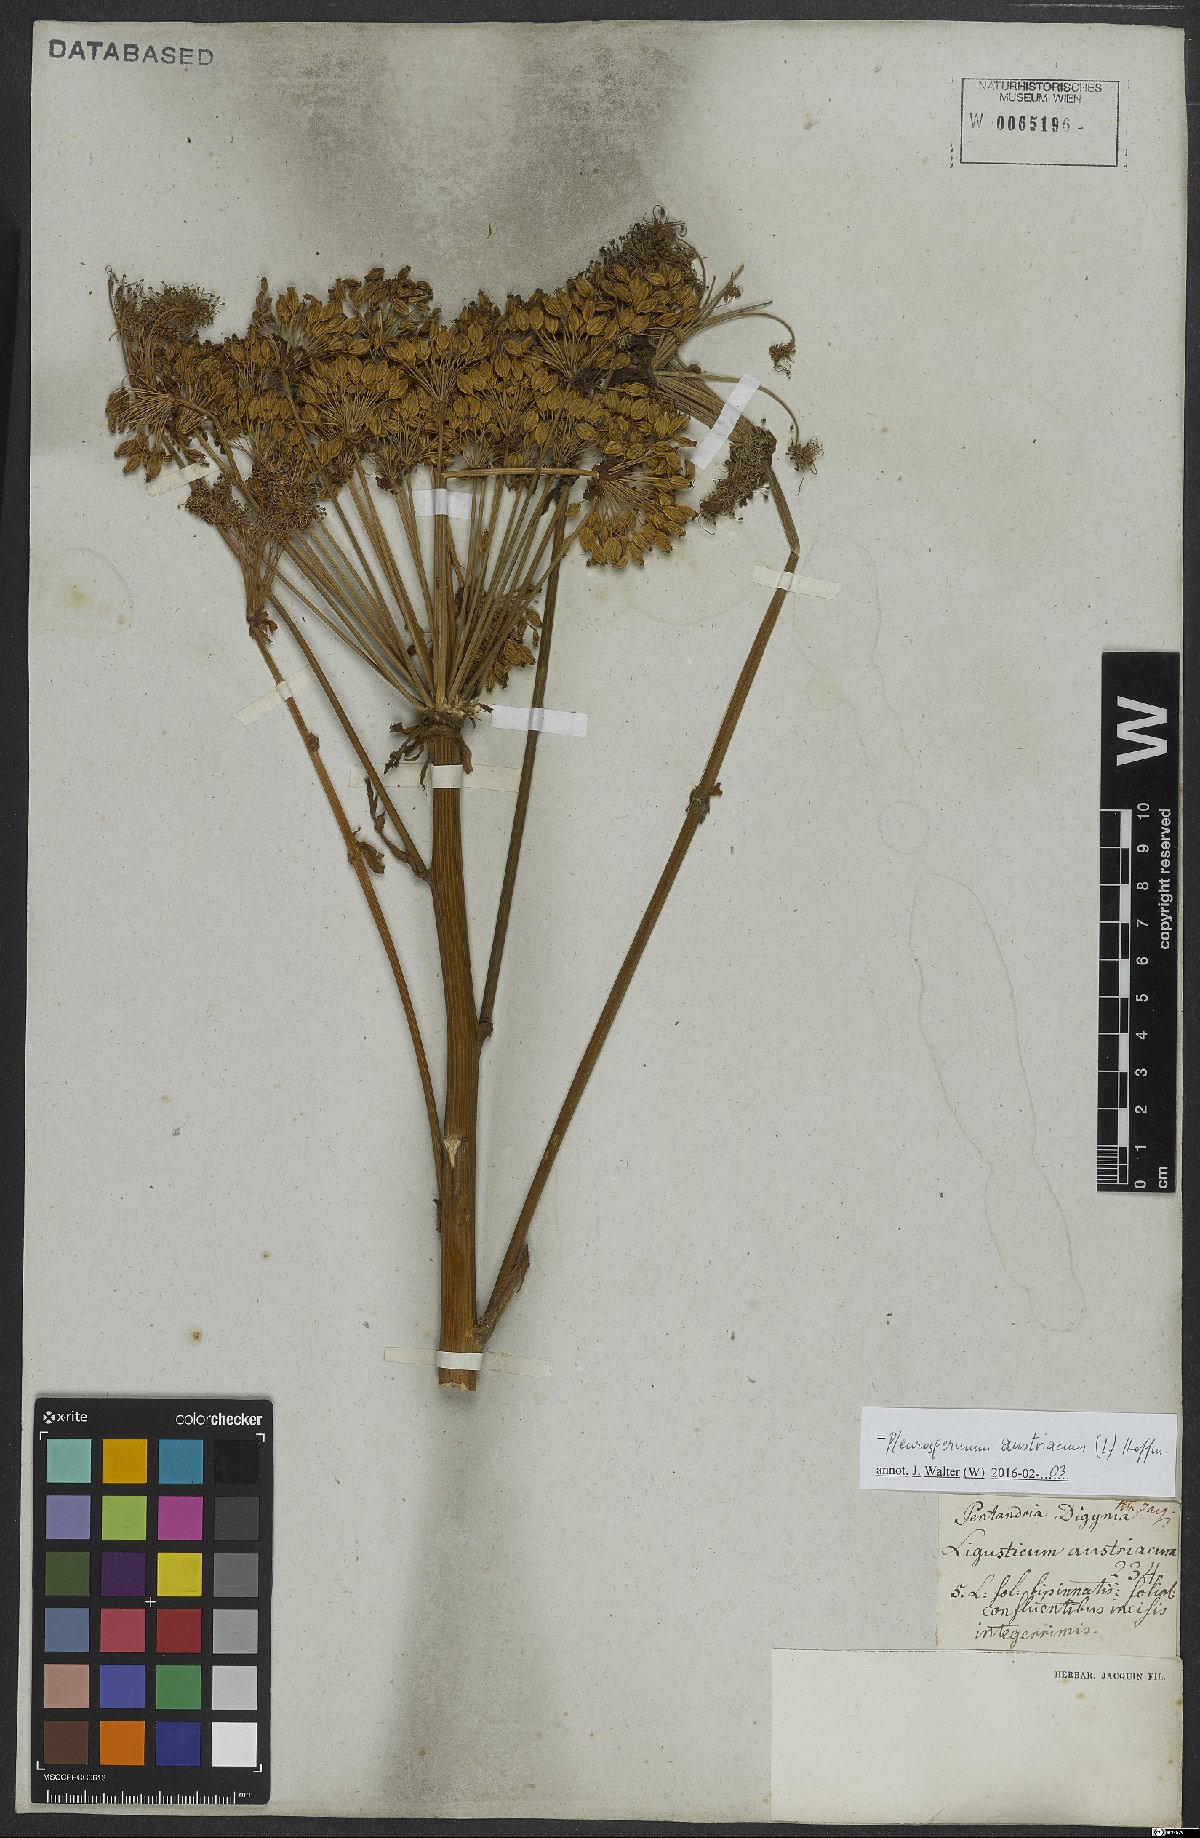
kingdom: Plantae
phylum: Tracheophyta
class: Magnoliopsida
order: Apiales
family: Apiaceae
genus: Pleurospermum
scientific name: Pleurospermum austriacum
